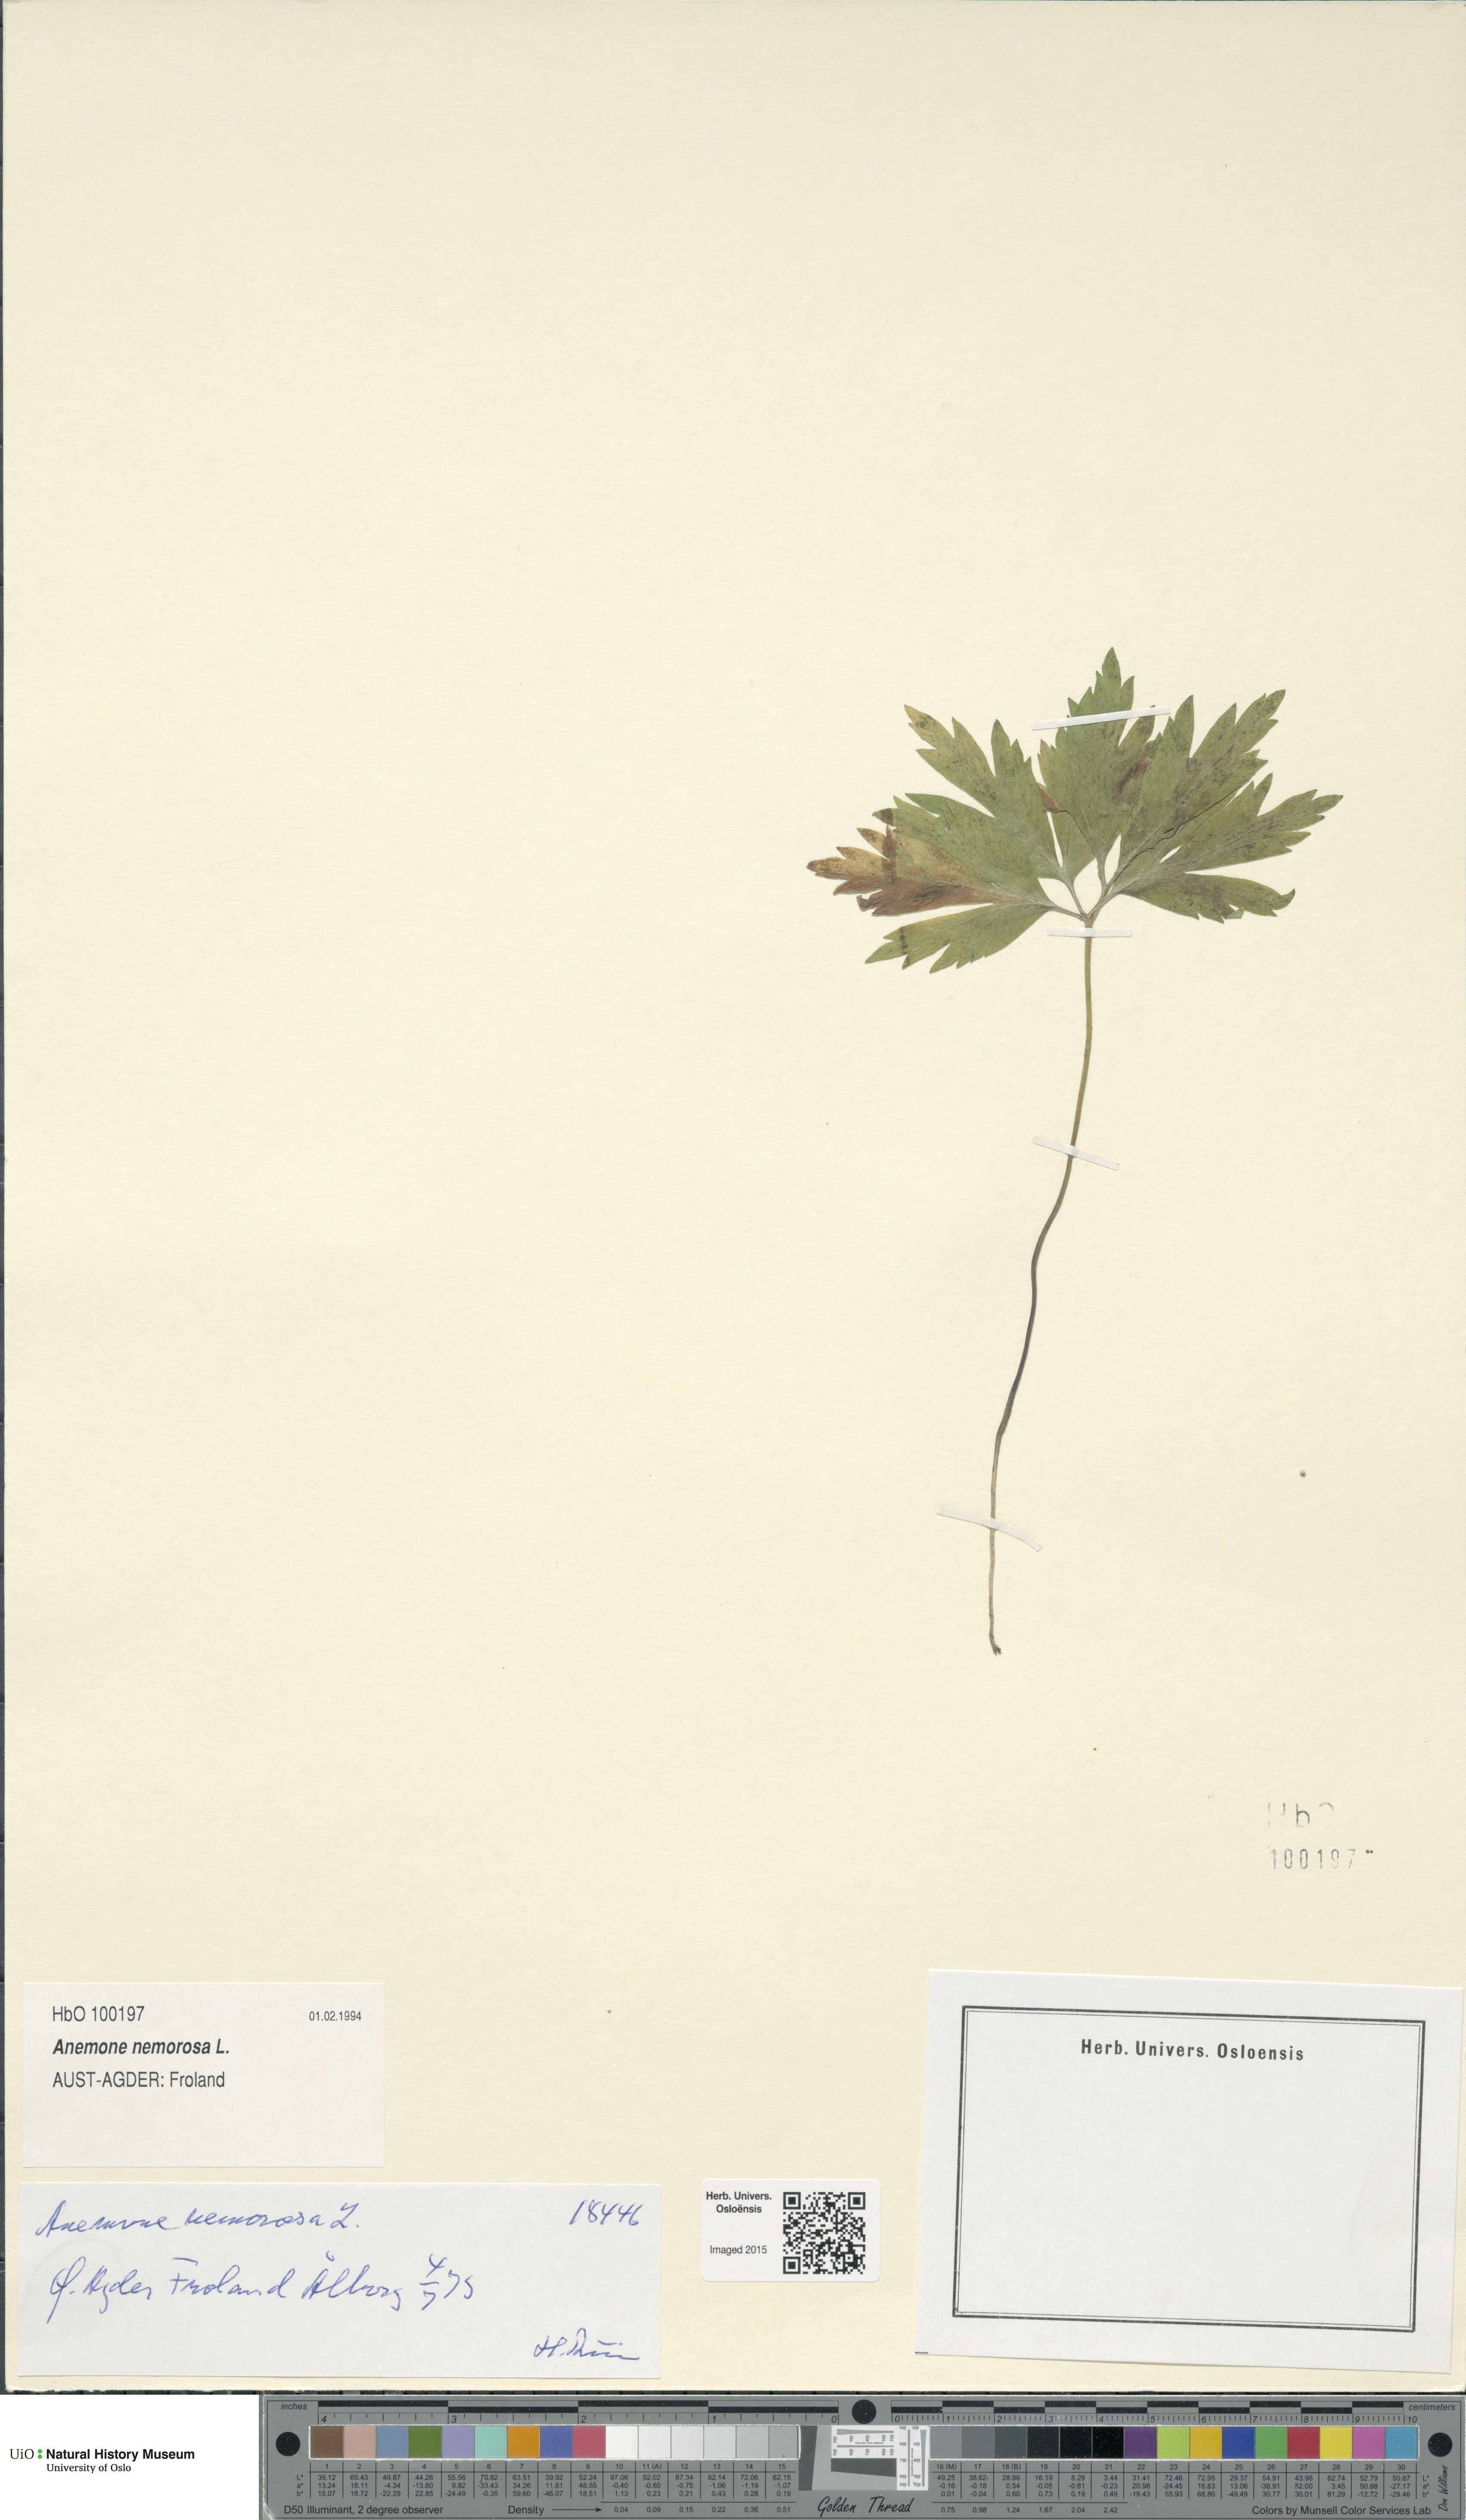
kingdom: Plantae
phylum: Tracheophyta
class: Magnoliopsida
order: Ranunculales
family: Ranunculaceae
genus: Anemone
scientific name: Anemone nemorosa
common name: Wood anemone
